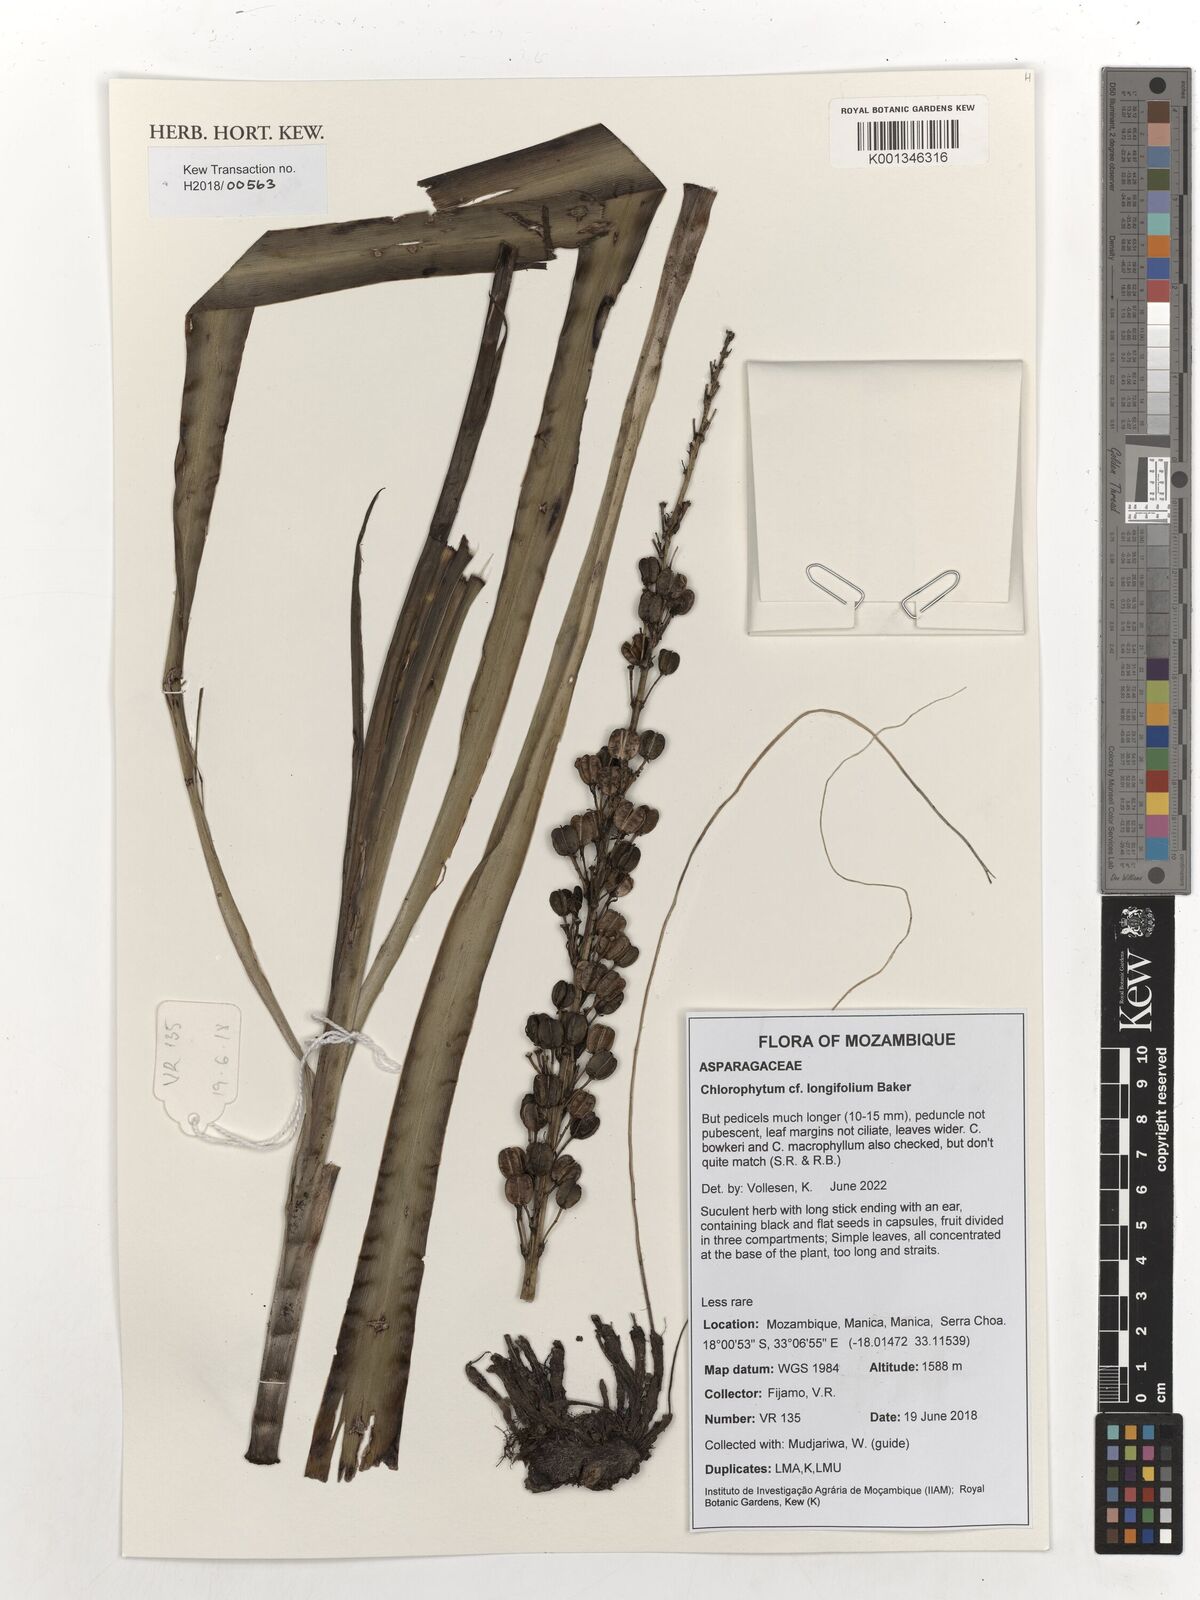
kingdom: Plantae
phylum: Tracheophyta
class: Liliopsida
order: Asparagales
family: Asparagaceae
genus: Chlorophytum
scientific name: Chlorophytum longifolium
